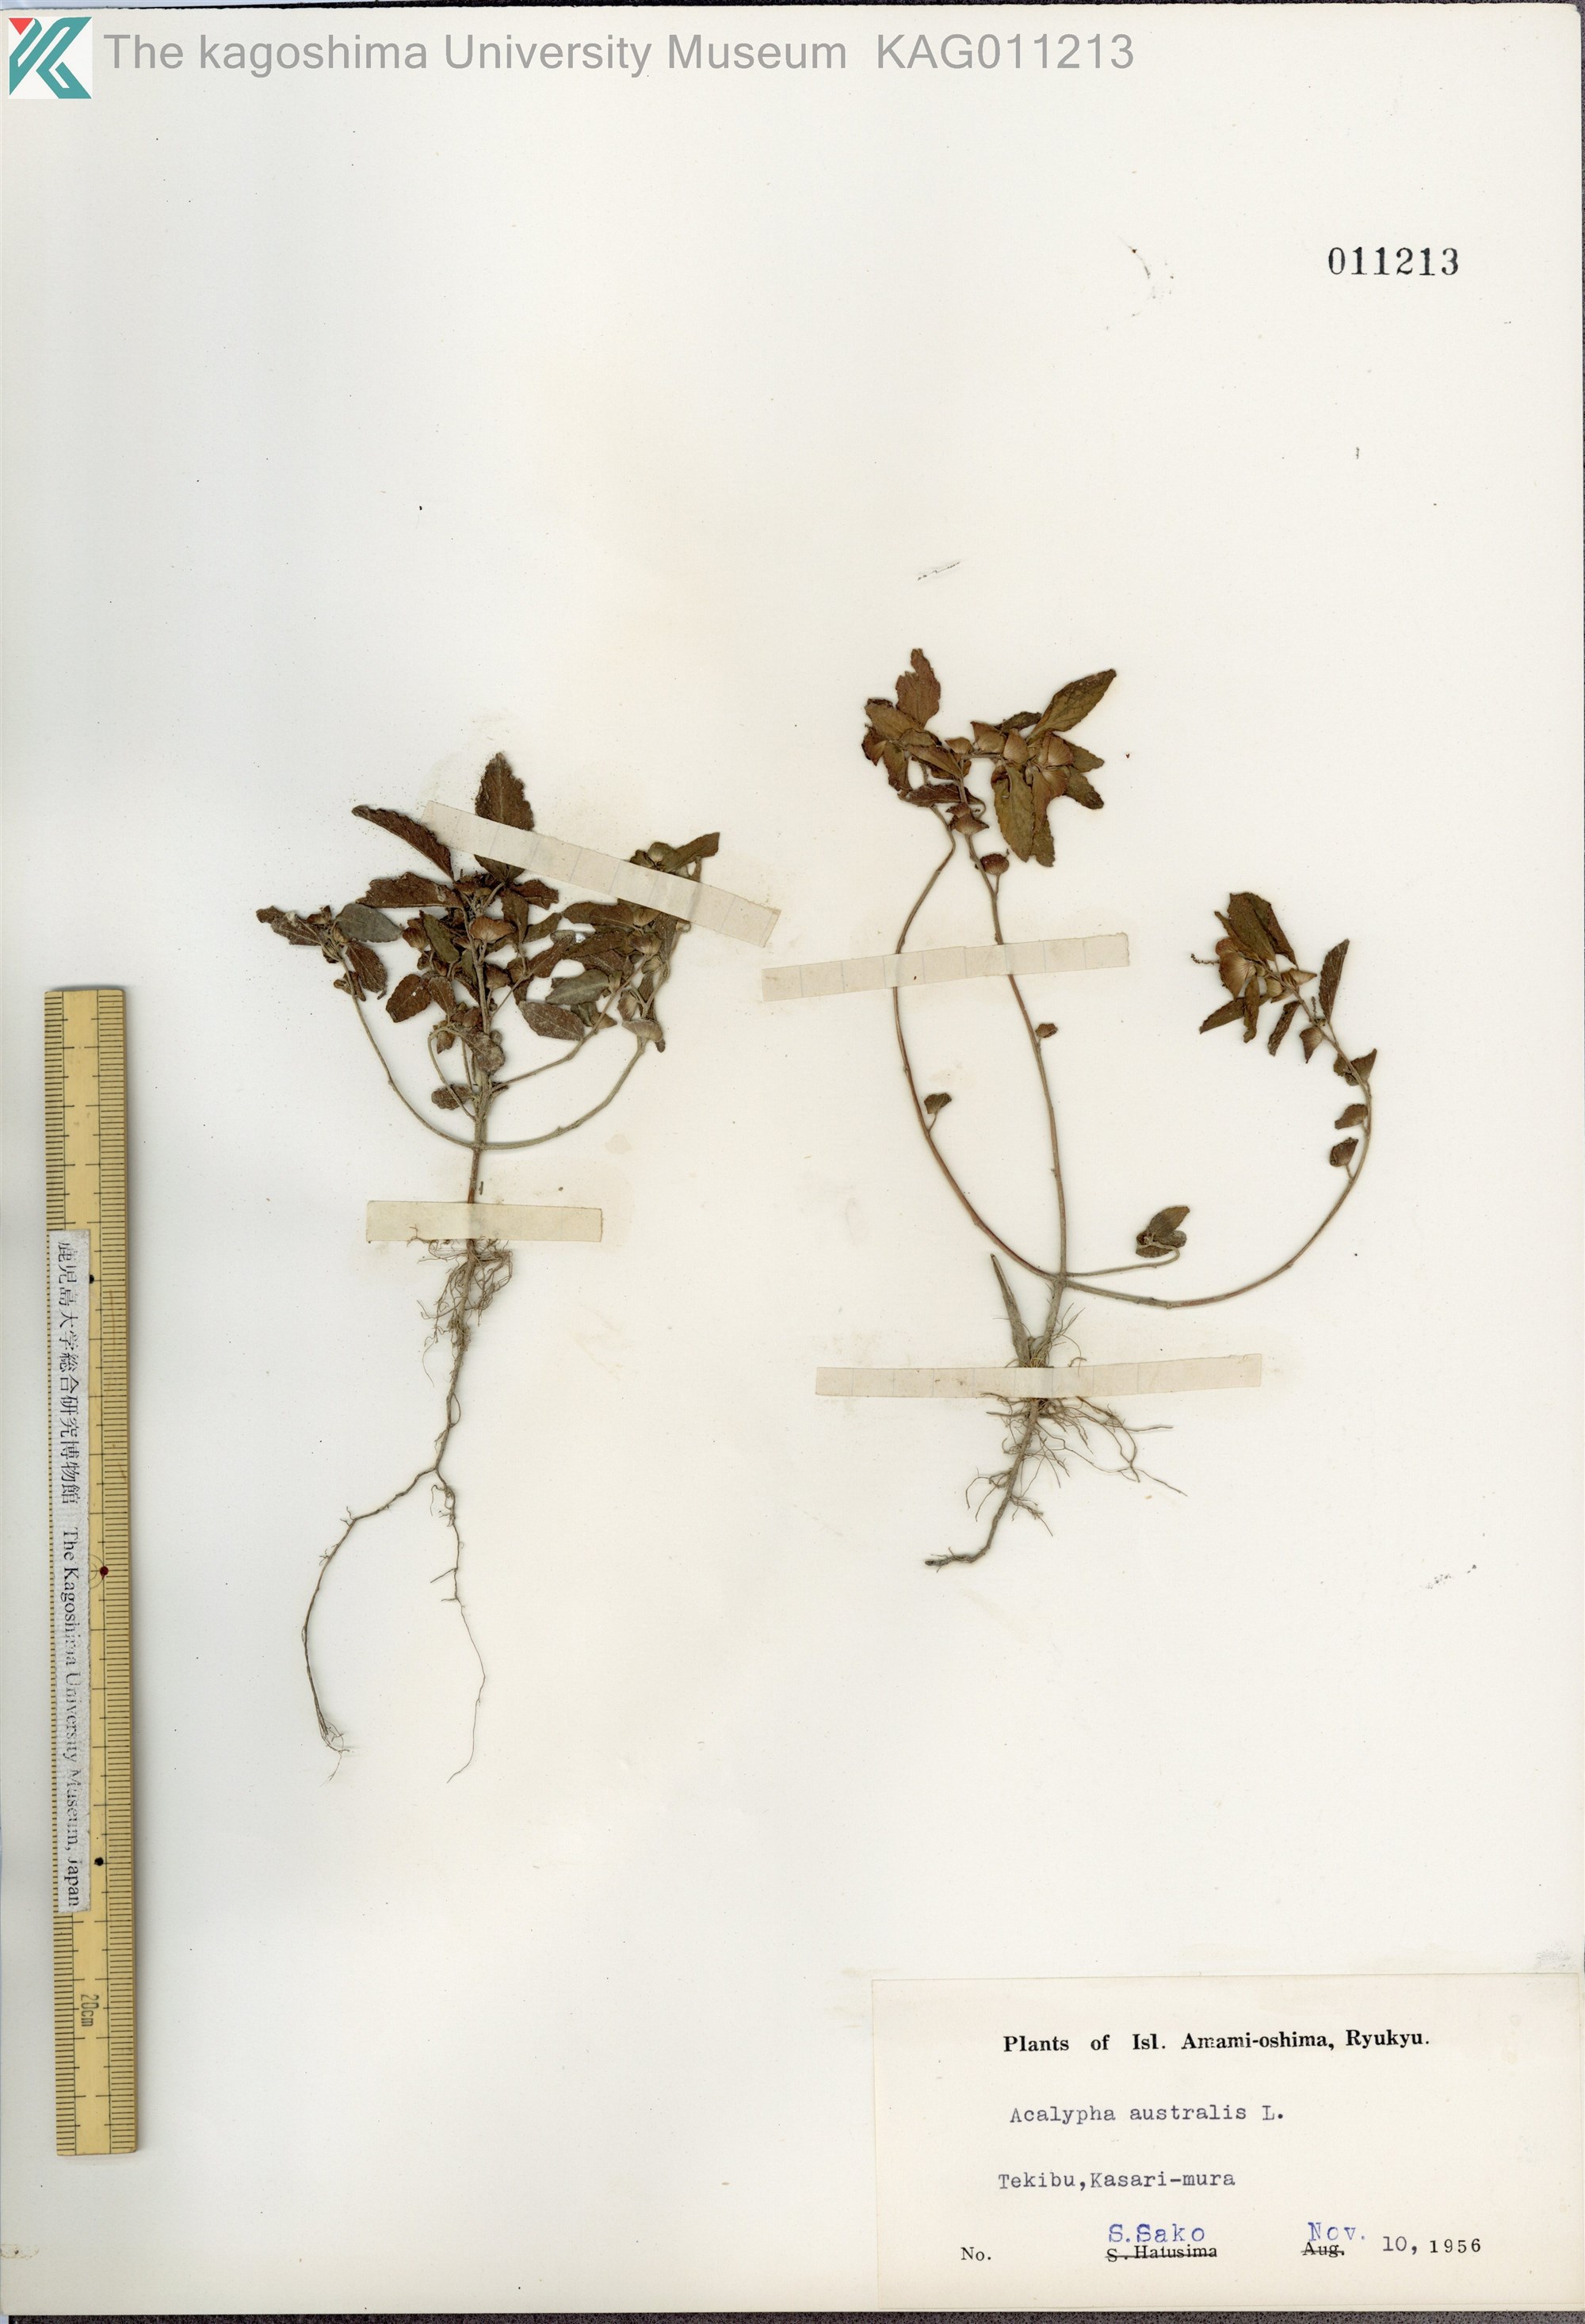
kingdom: Plantae
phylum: Tracheophyta
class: Magnoliopsida
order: Malpighiales
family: Euphorbiaceae
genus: Acalypha
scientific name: Acalypha australis
